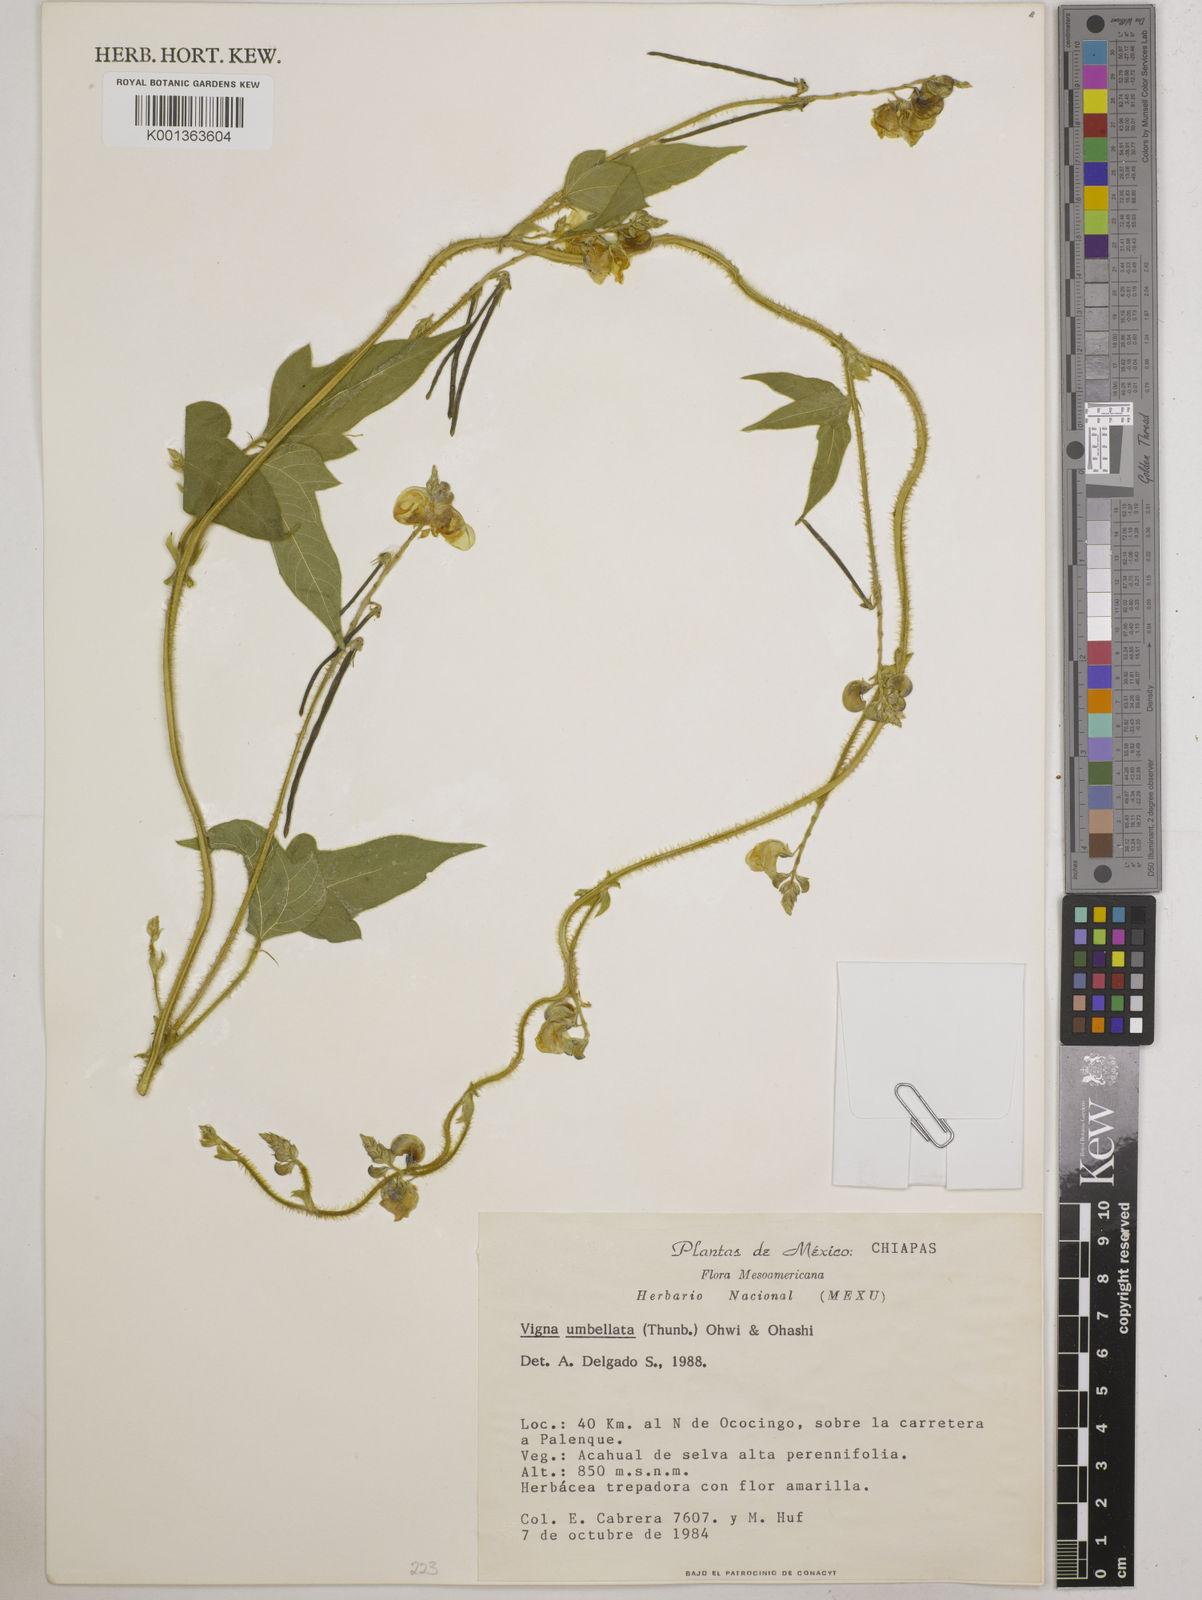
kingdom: Plantae
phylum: Tracheophyta
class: Magnoliopsida
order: Fabales
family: Fabaceae
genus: Vigna
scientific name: Vigna umbellata
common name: Oriental-bean
